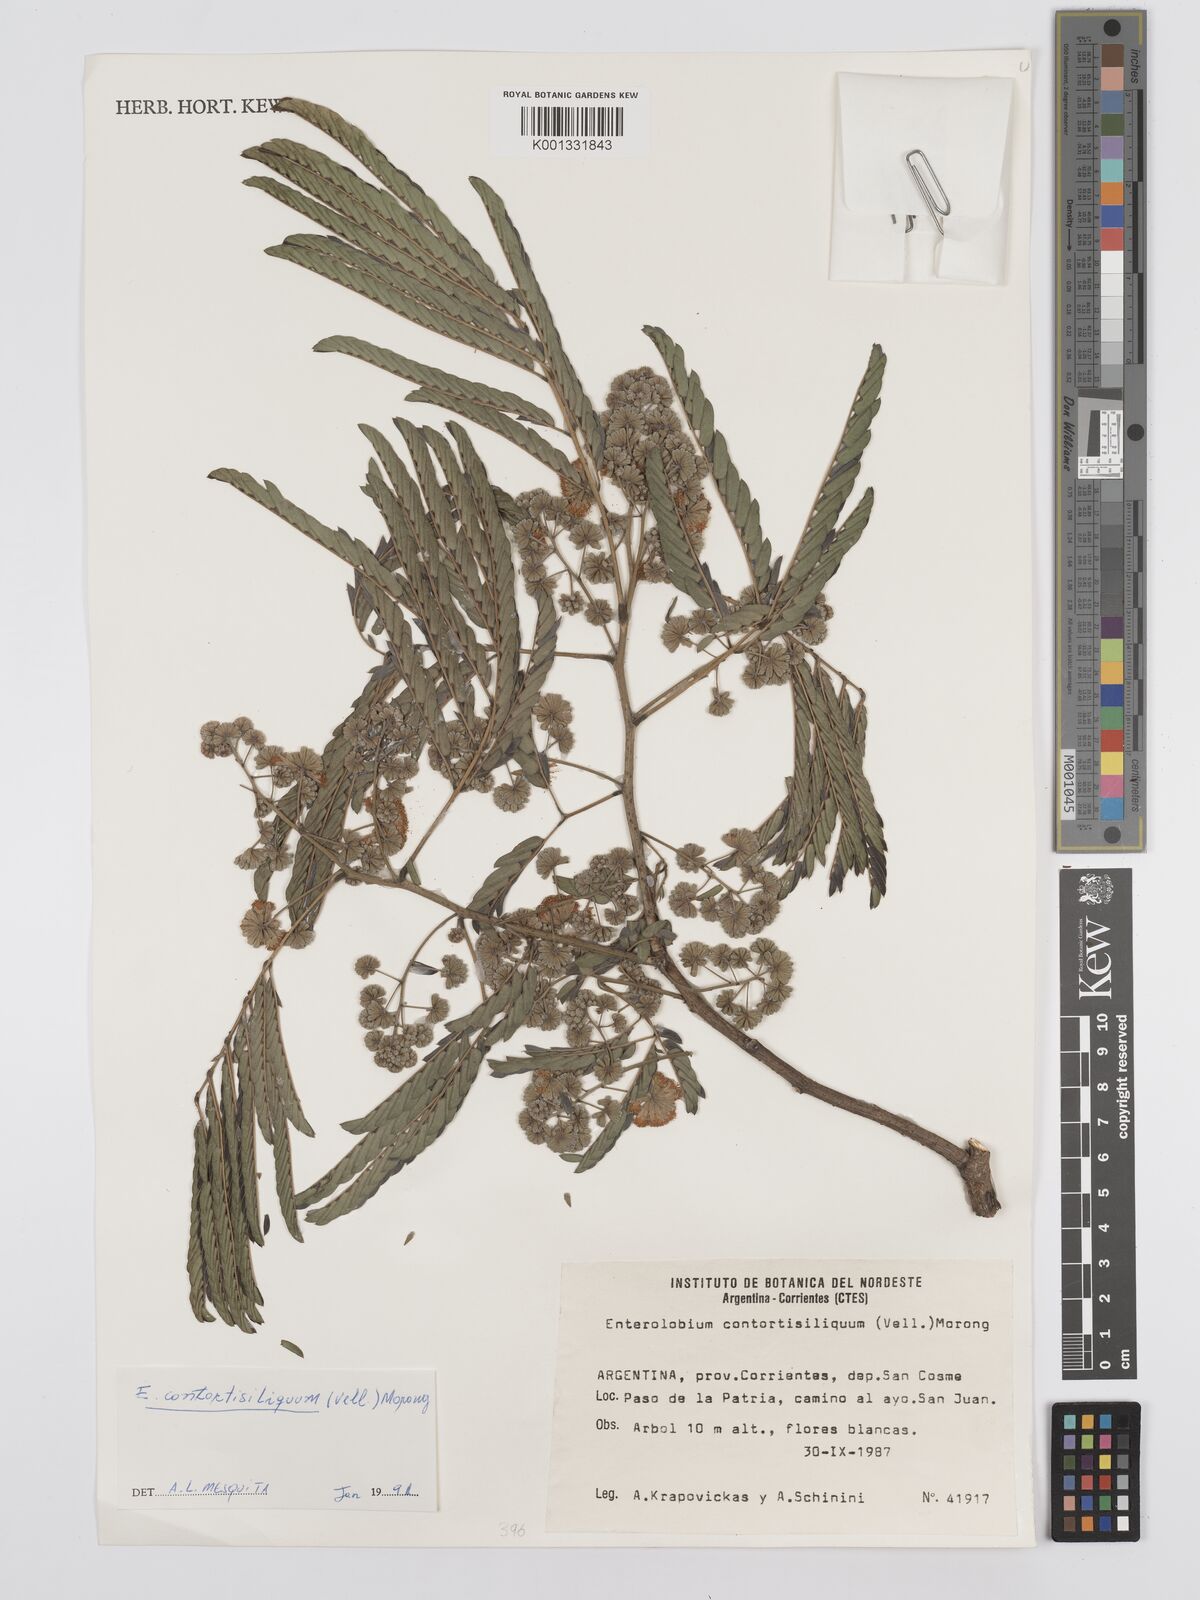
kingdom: Plantae
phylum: Tracheophyta
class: Magnoliopsida
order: Fabales
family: Fabaceae
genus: Enterolobium
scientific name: Enterolobium contortisiliquum
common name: Pacara earpod tree
